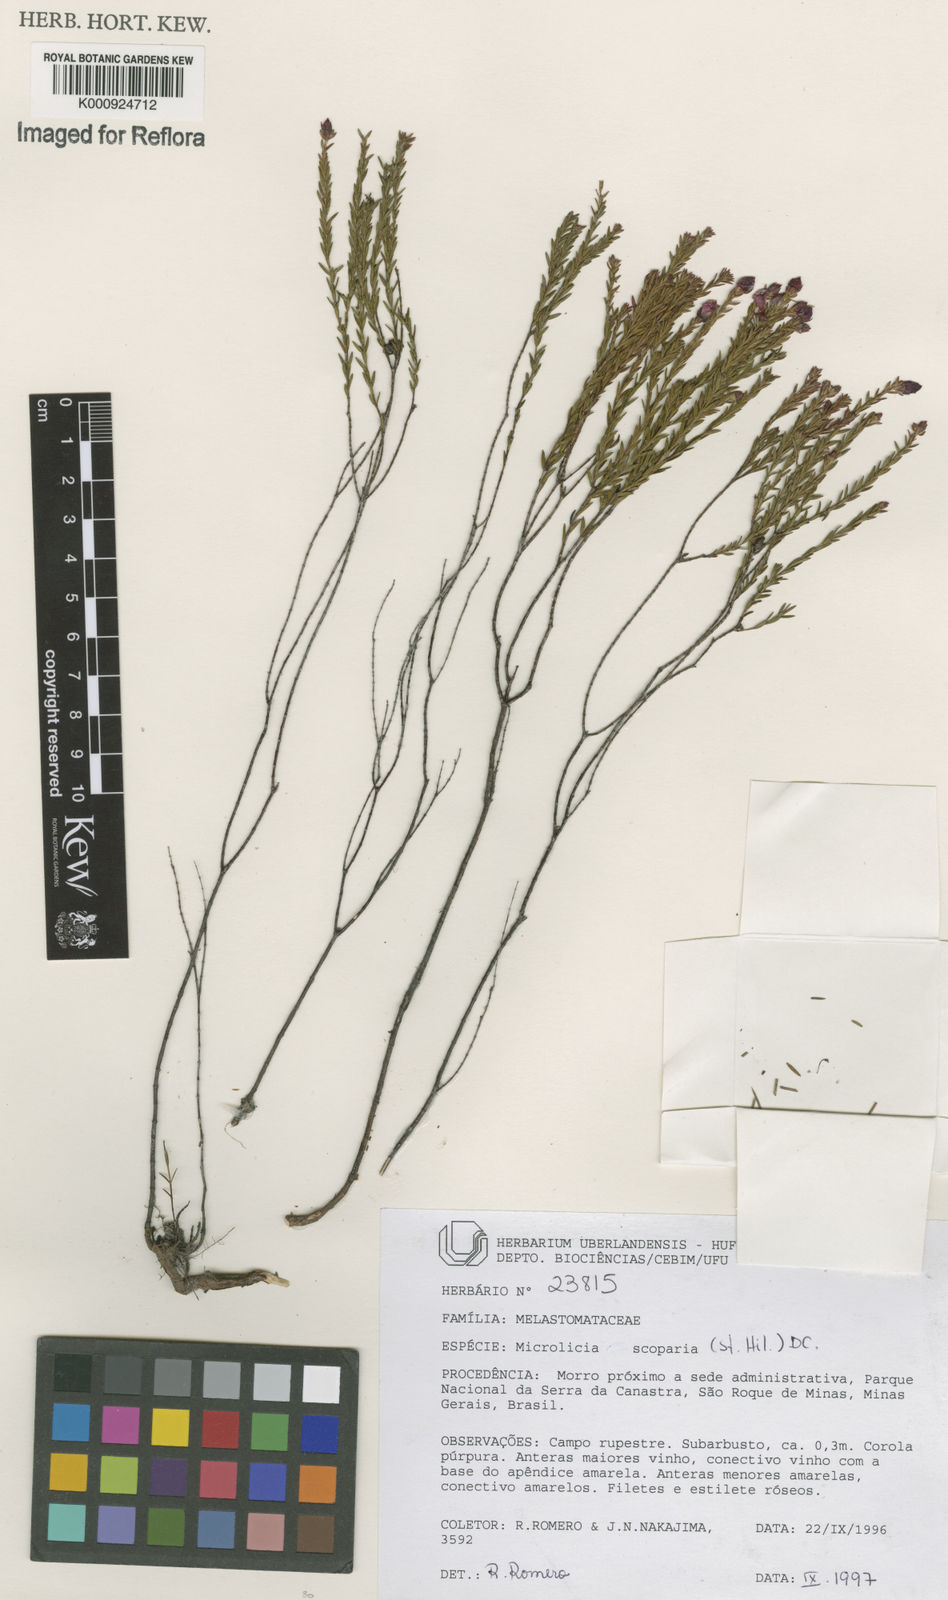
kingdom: Plantae
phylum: Tracheophyta
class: Magnoliopsida
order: Myrtales
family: Melastomataceae
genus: Microlicia
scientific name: Microlicia scoparia
